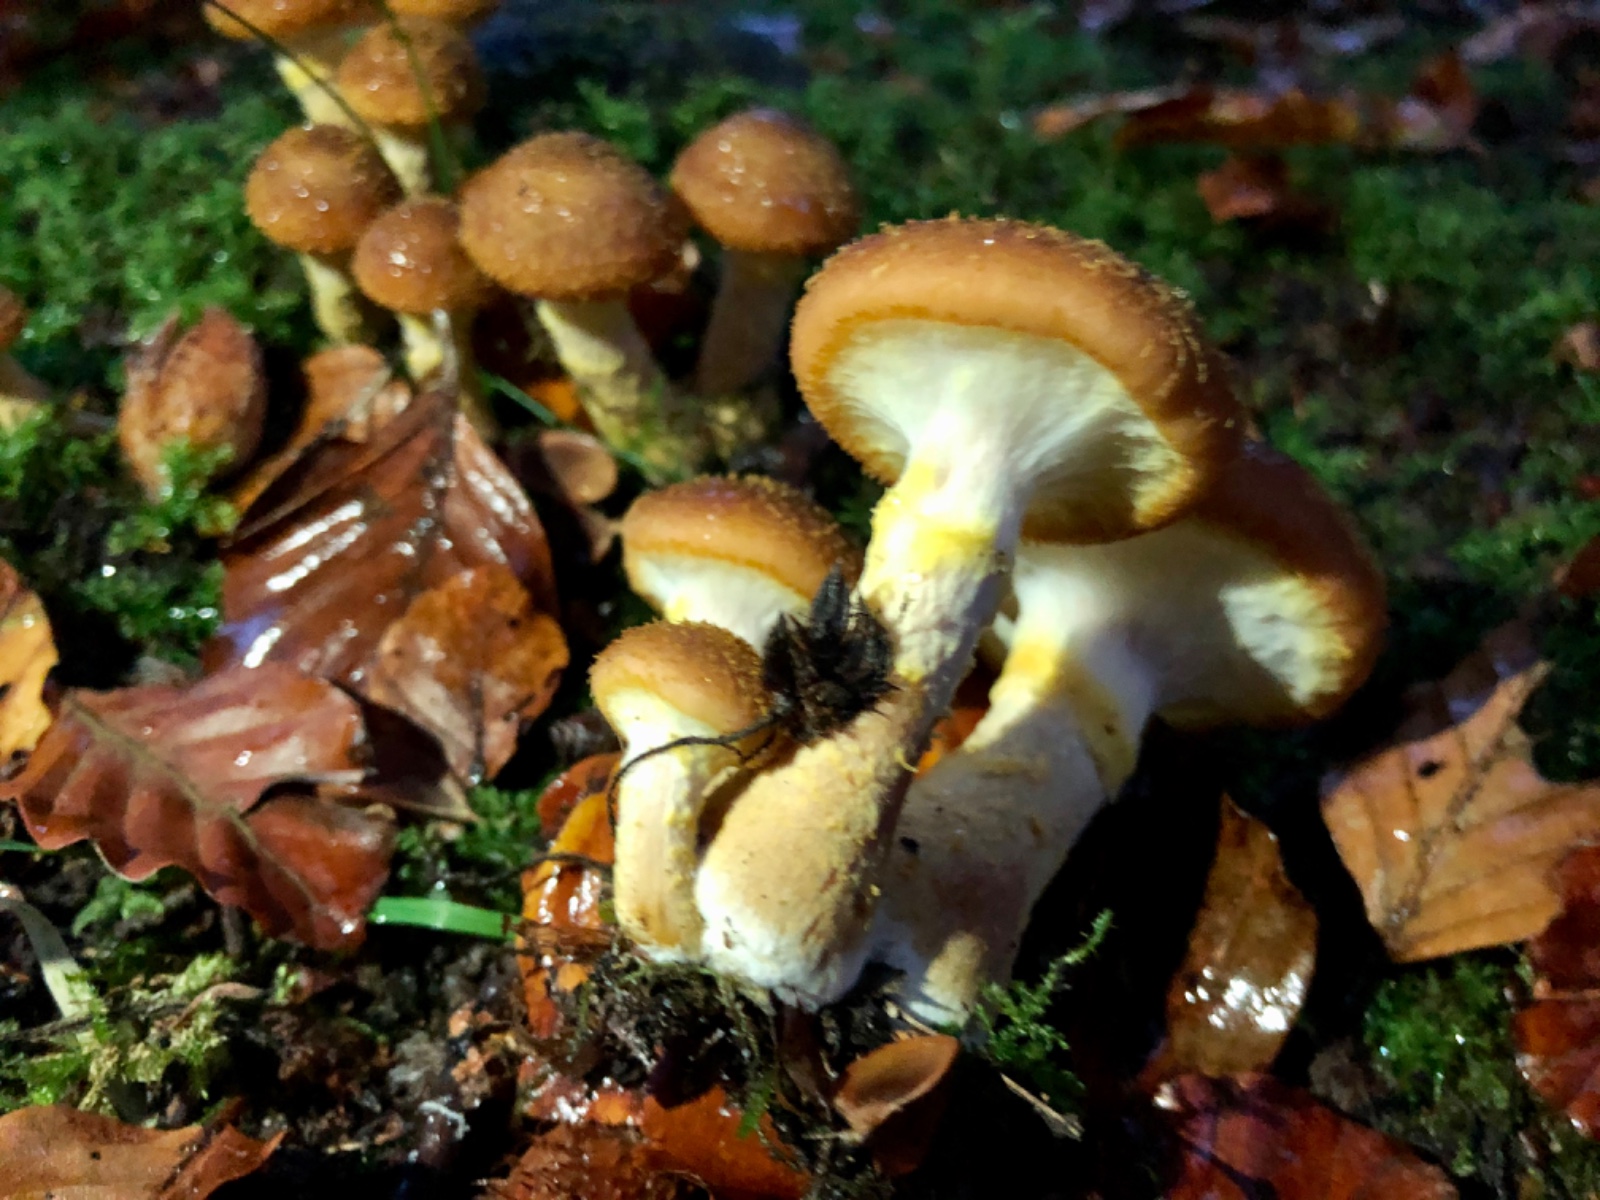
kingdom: Fungi
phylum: Basidiomycota
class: Agaricomycetes
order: Agaricales
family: Physalacriaceae
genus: Armillaria
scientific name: Armillaria lutea
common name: køllestokket honningsvamp
